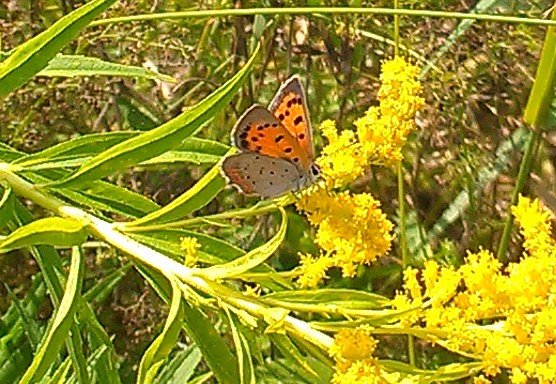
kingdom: Animalia
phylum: Arthropoda
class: Insecta
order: Lepidoptera
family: Lycaenidae
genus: Lycaena
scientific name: Lycaena phlaeas
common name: American Copper
